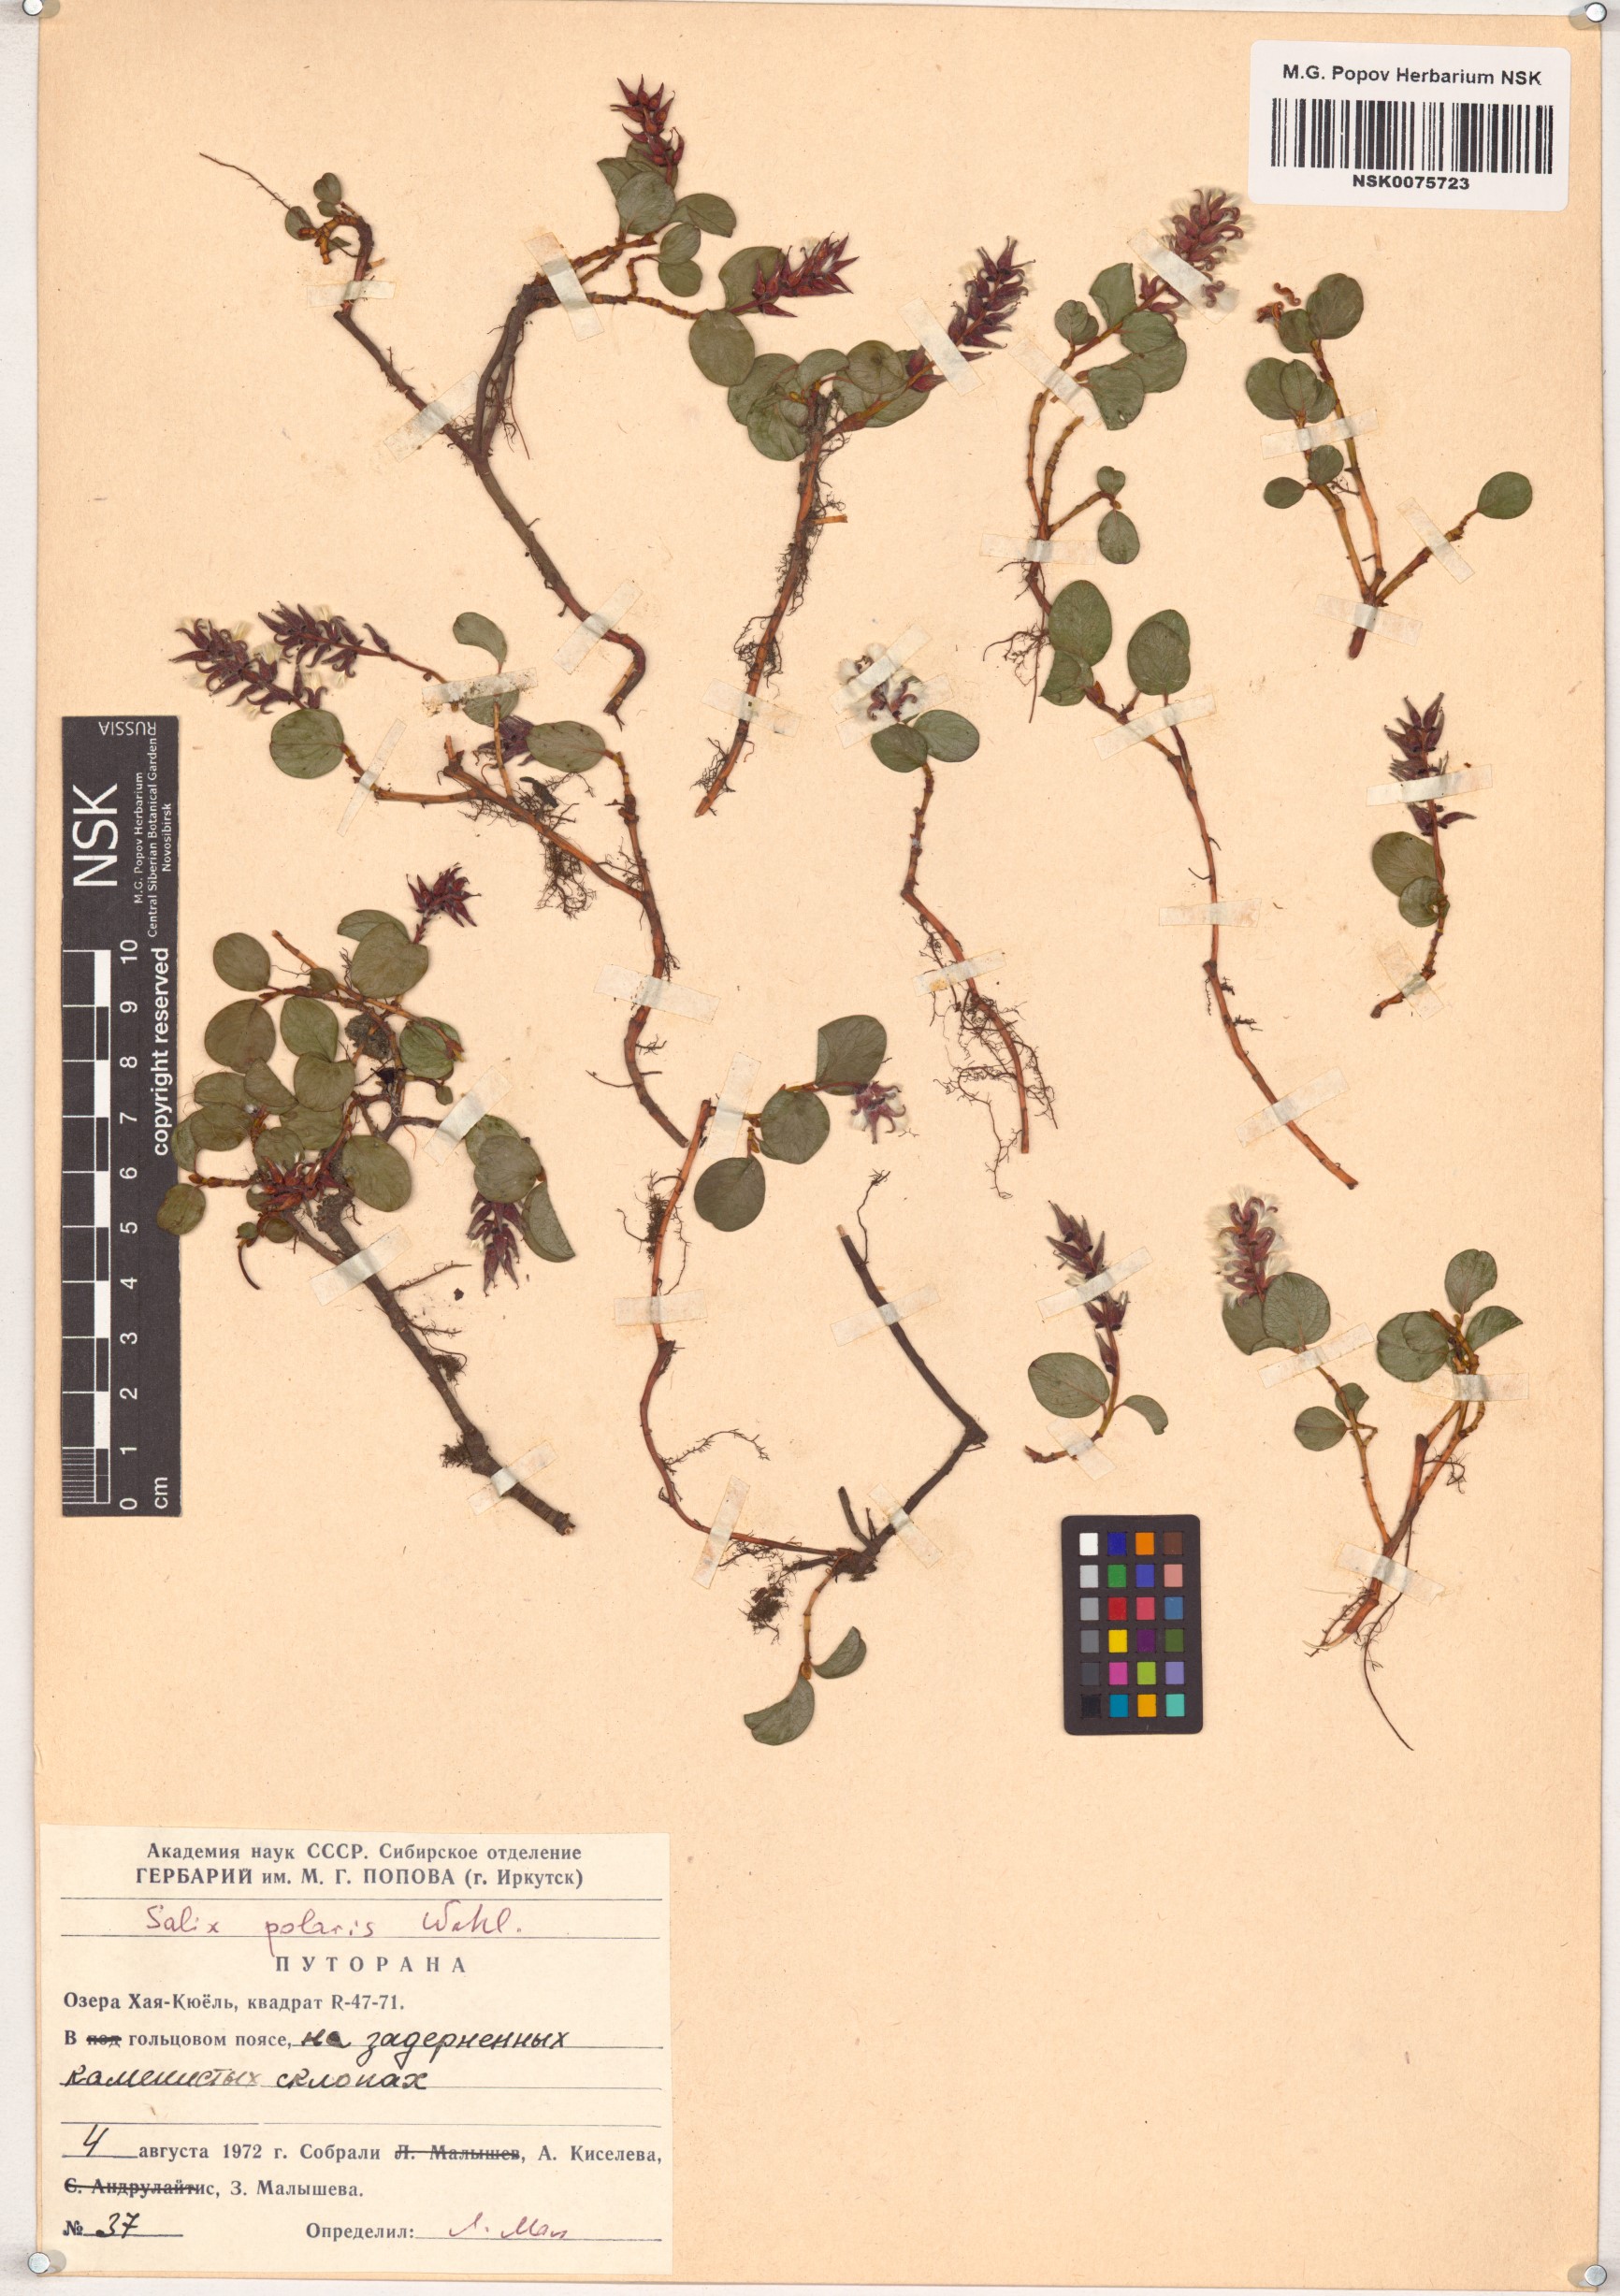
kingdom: Plantae
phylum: Tracheophyta
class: Magnoliopsida
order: Malpighiales
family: Salicaceae
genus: Salix
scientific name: Salix polaris
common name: Polar willow
